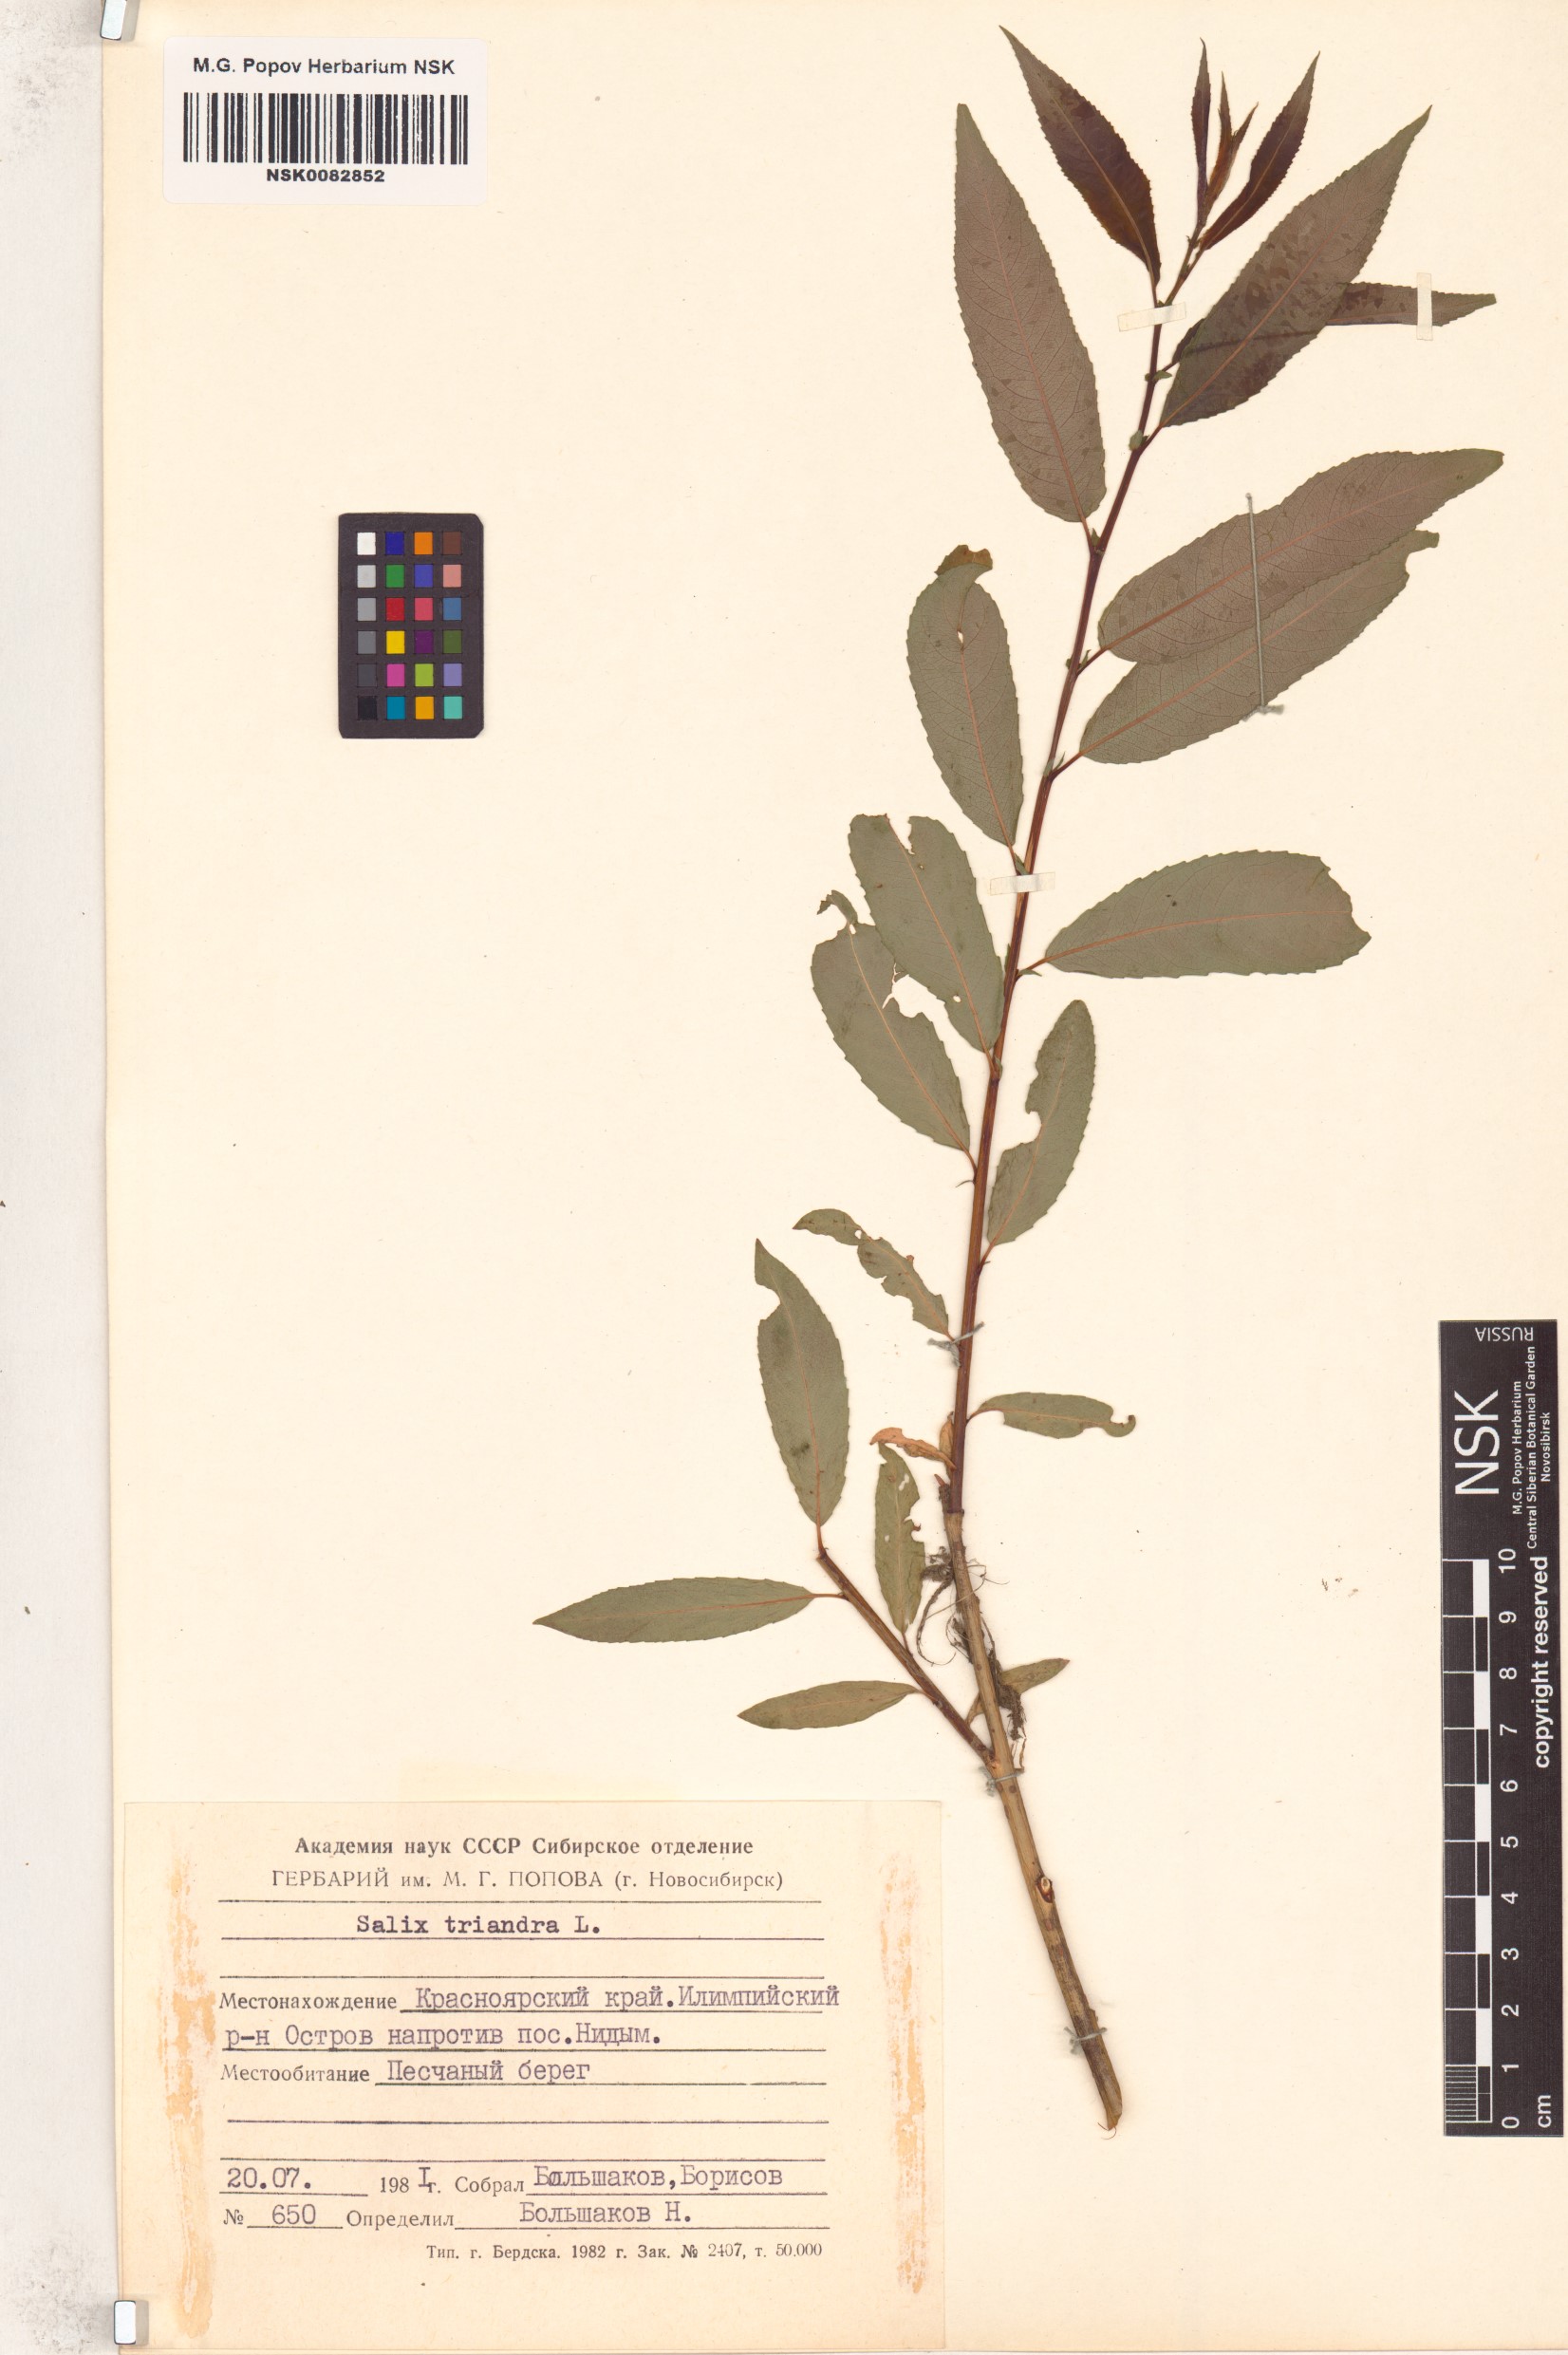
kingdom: Plantae
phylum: Tracheophyta
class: Magnoliopsida
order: Malpighiales
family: Salicaceae
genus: Salix
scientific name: Salix triandra
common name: Almond willow
